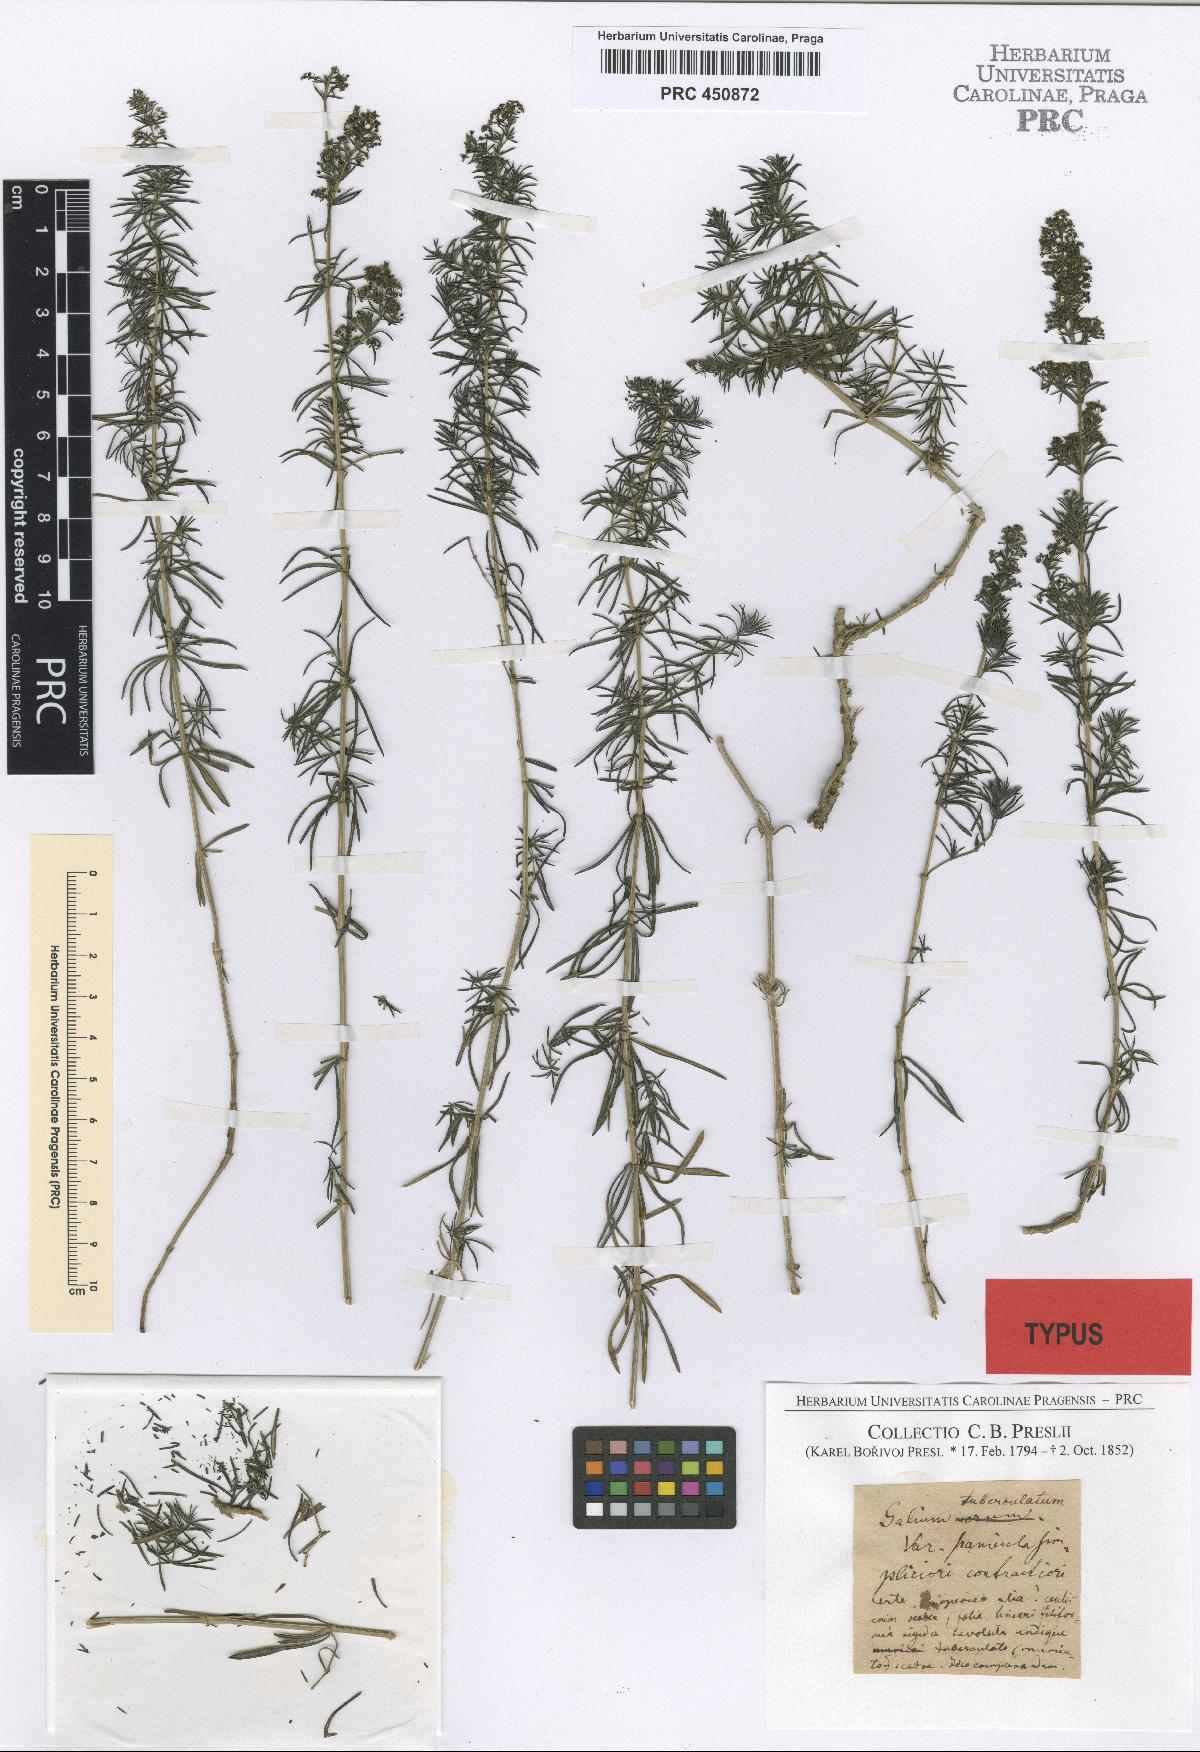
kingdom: Plantae
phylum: Tracheophyta
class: Magnoliopsida
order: Gentianales
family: Rubiaceae
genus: Galium
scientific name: Galium verum
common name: Lady's bedstraw
